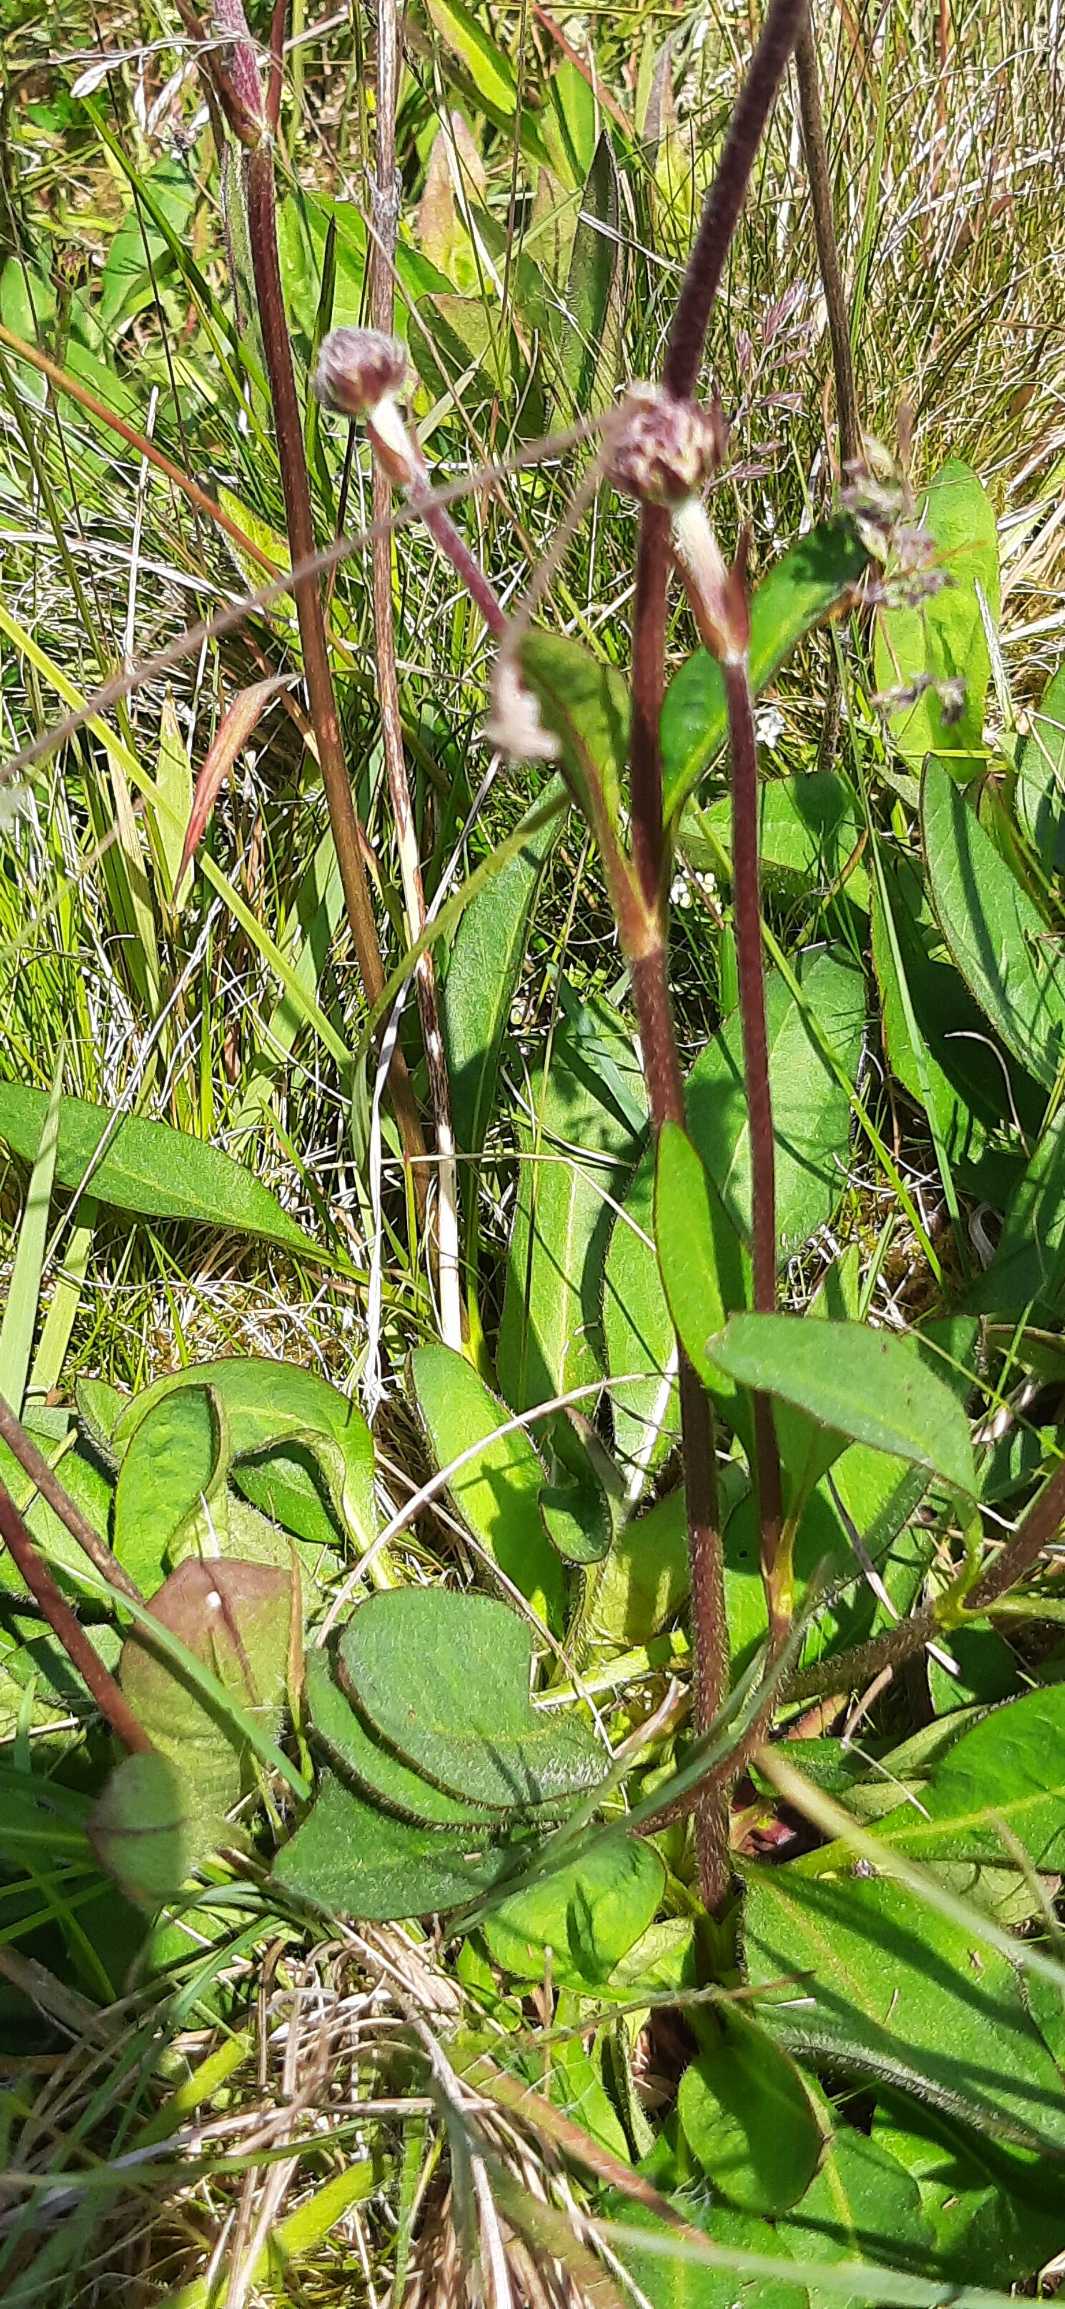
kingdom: Plantae
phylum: Tracheophyta
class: Magnoliopsida
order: Dipsacales
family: Caprifoliaceae
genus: Succisa
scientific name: Succisa pratensis
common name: Djævelsbid
